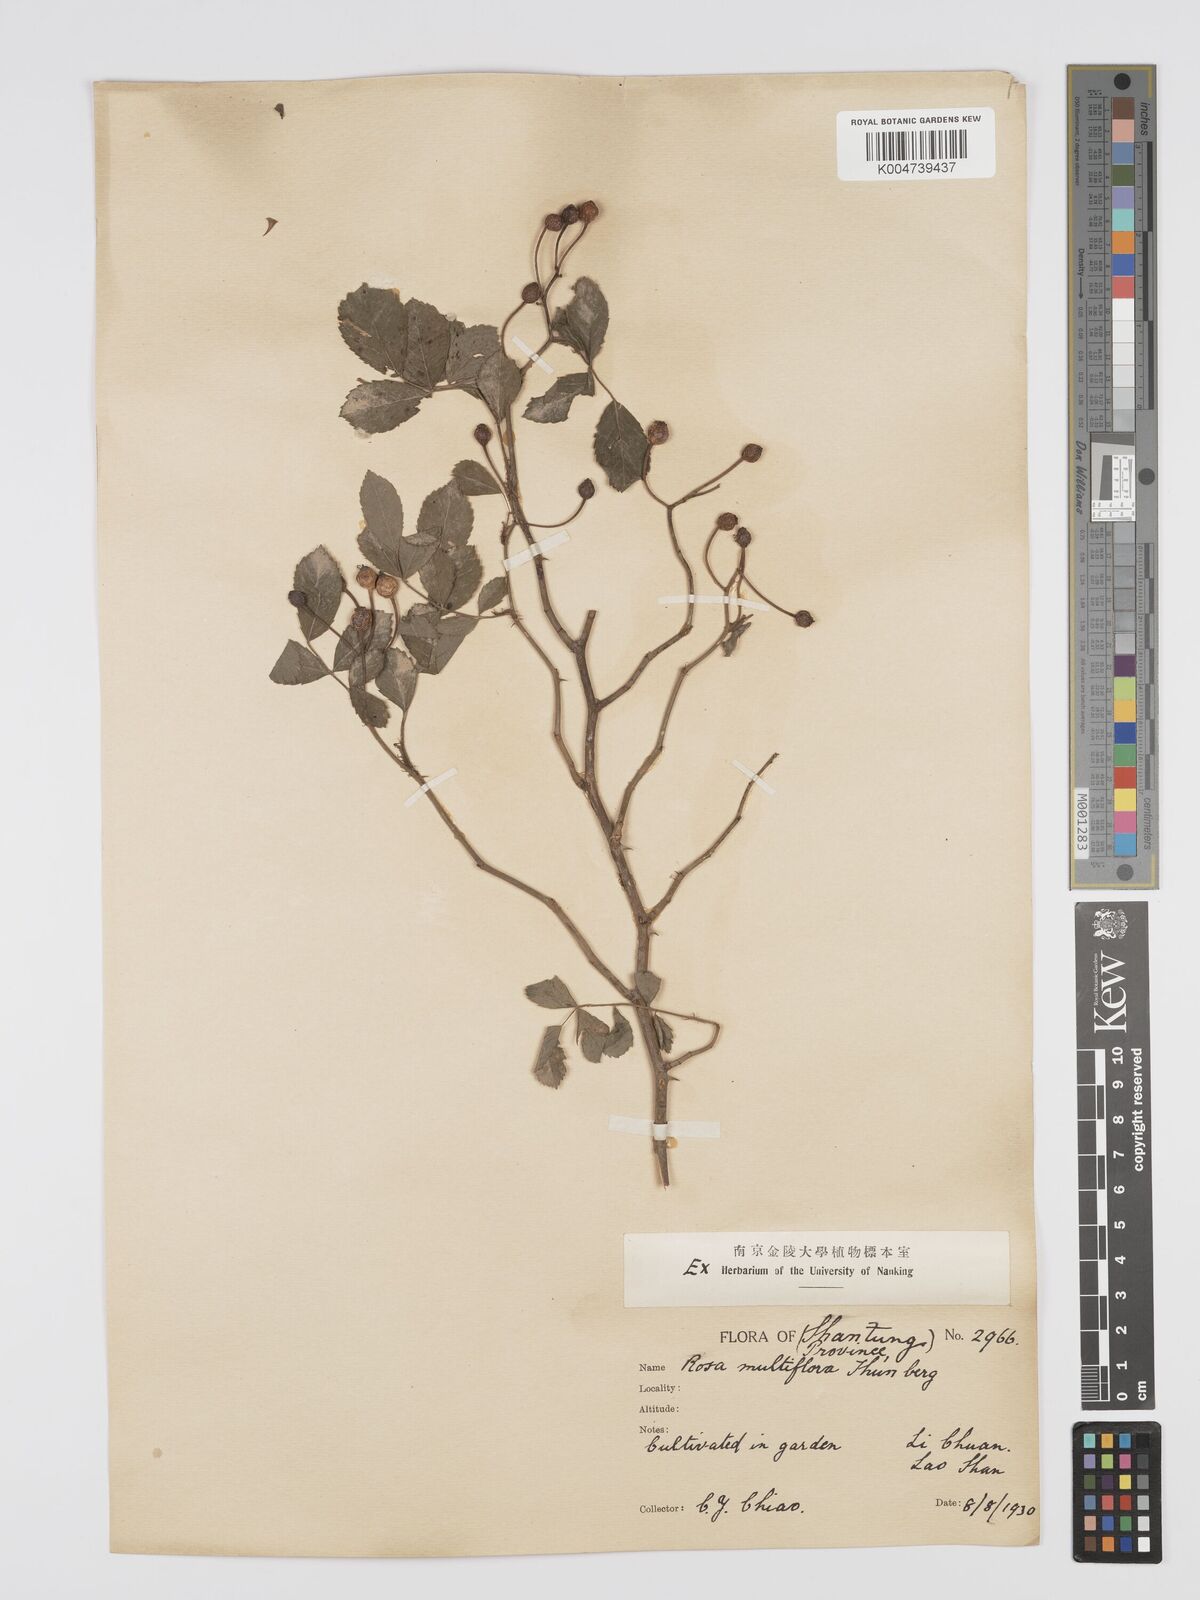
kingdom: Plantae
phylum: Tracheophyta
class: Magnoliopsida
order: Rosales
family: Rosaceae
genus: Rosa
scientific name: Rosa
